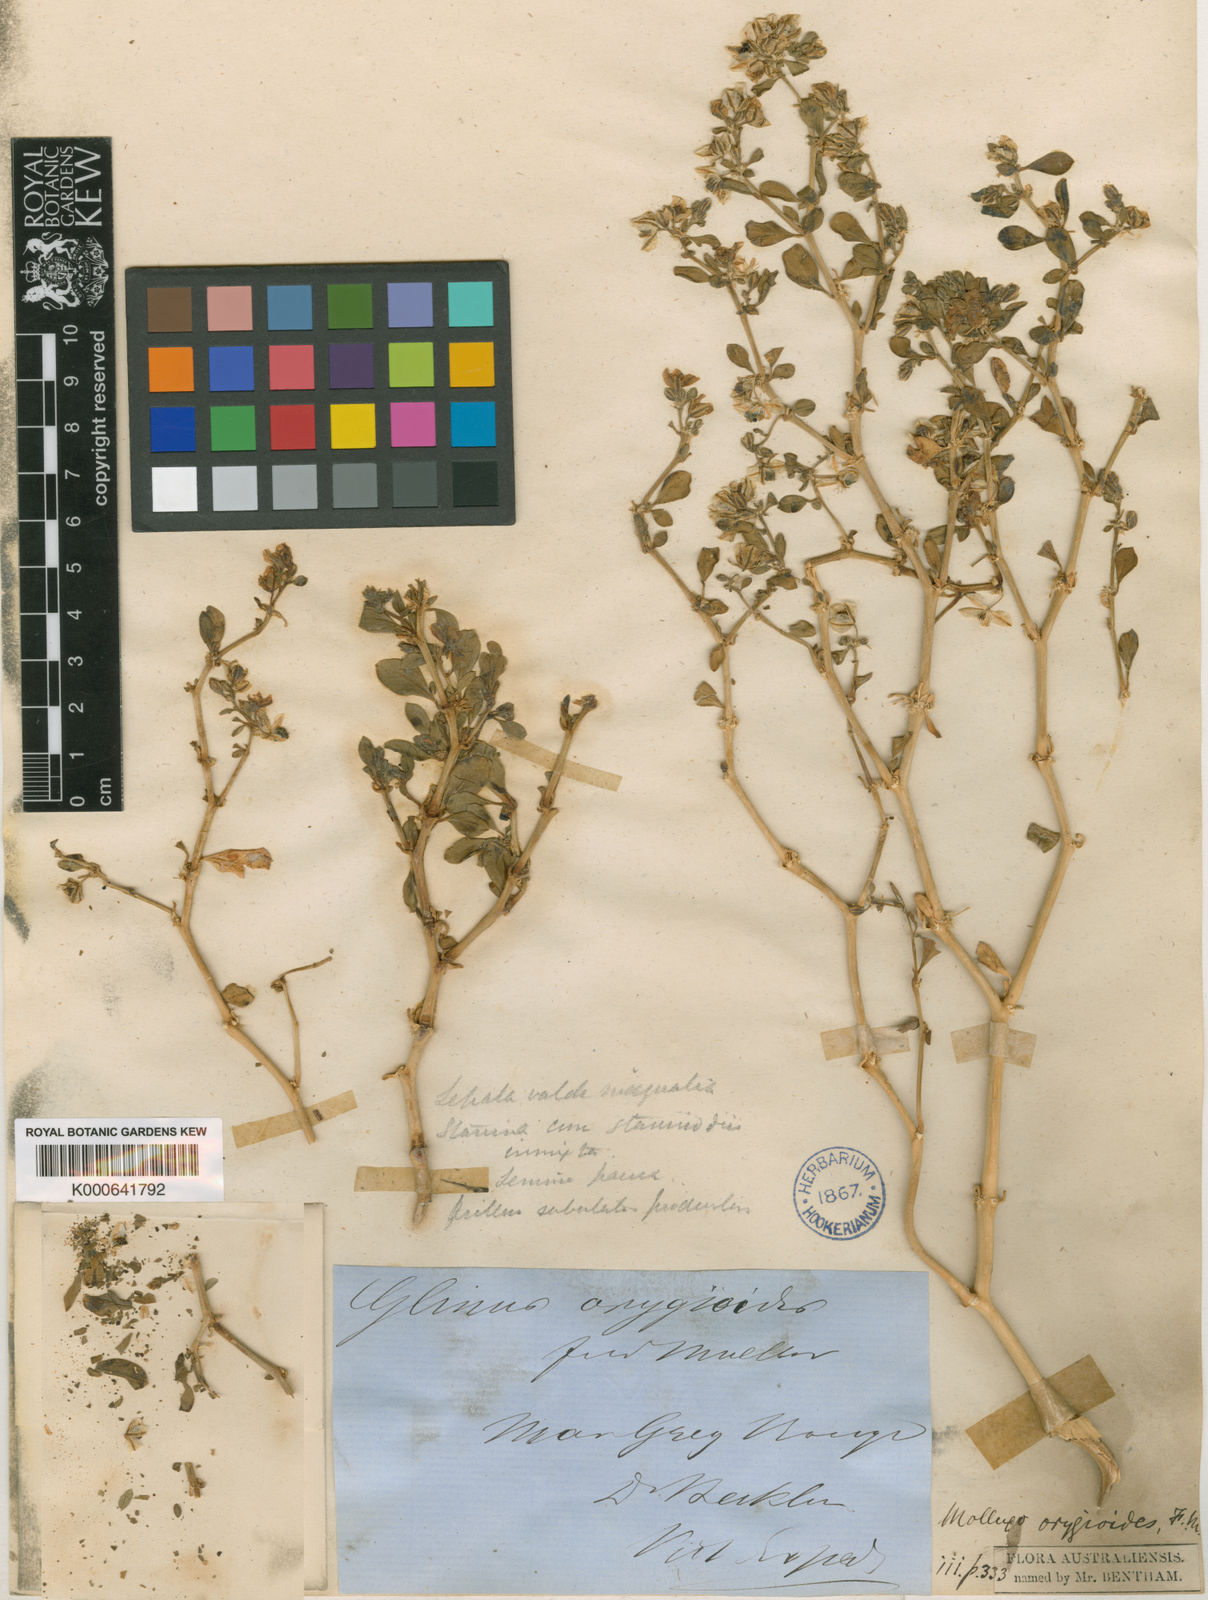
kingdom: Plantae
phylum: Tracheophyta
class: Magnoliopsida
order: Caryophyllales
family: Molluginaceae
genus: Glinus
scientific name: Glinus orygioides
